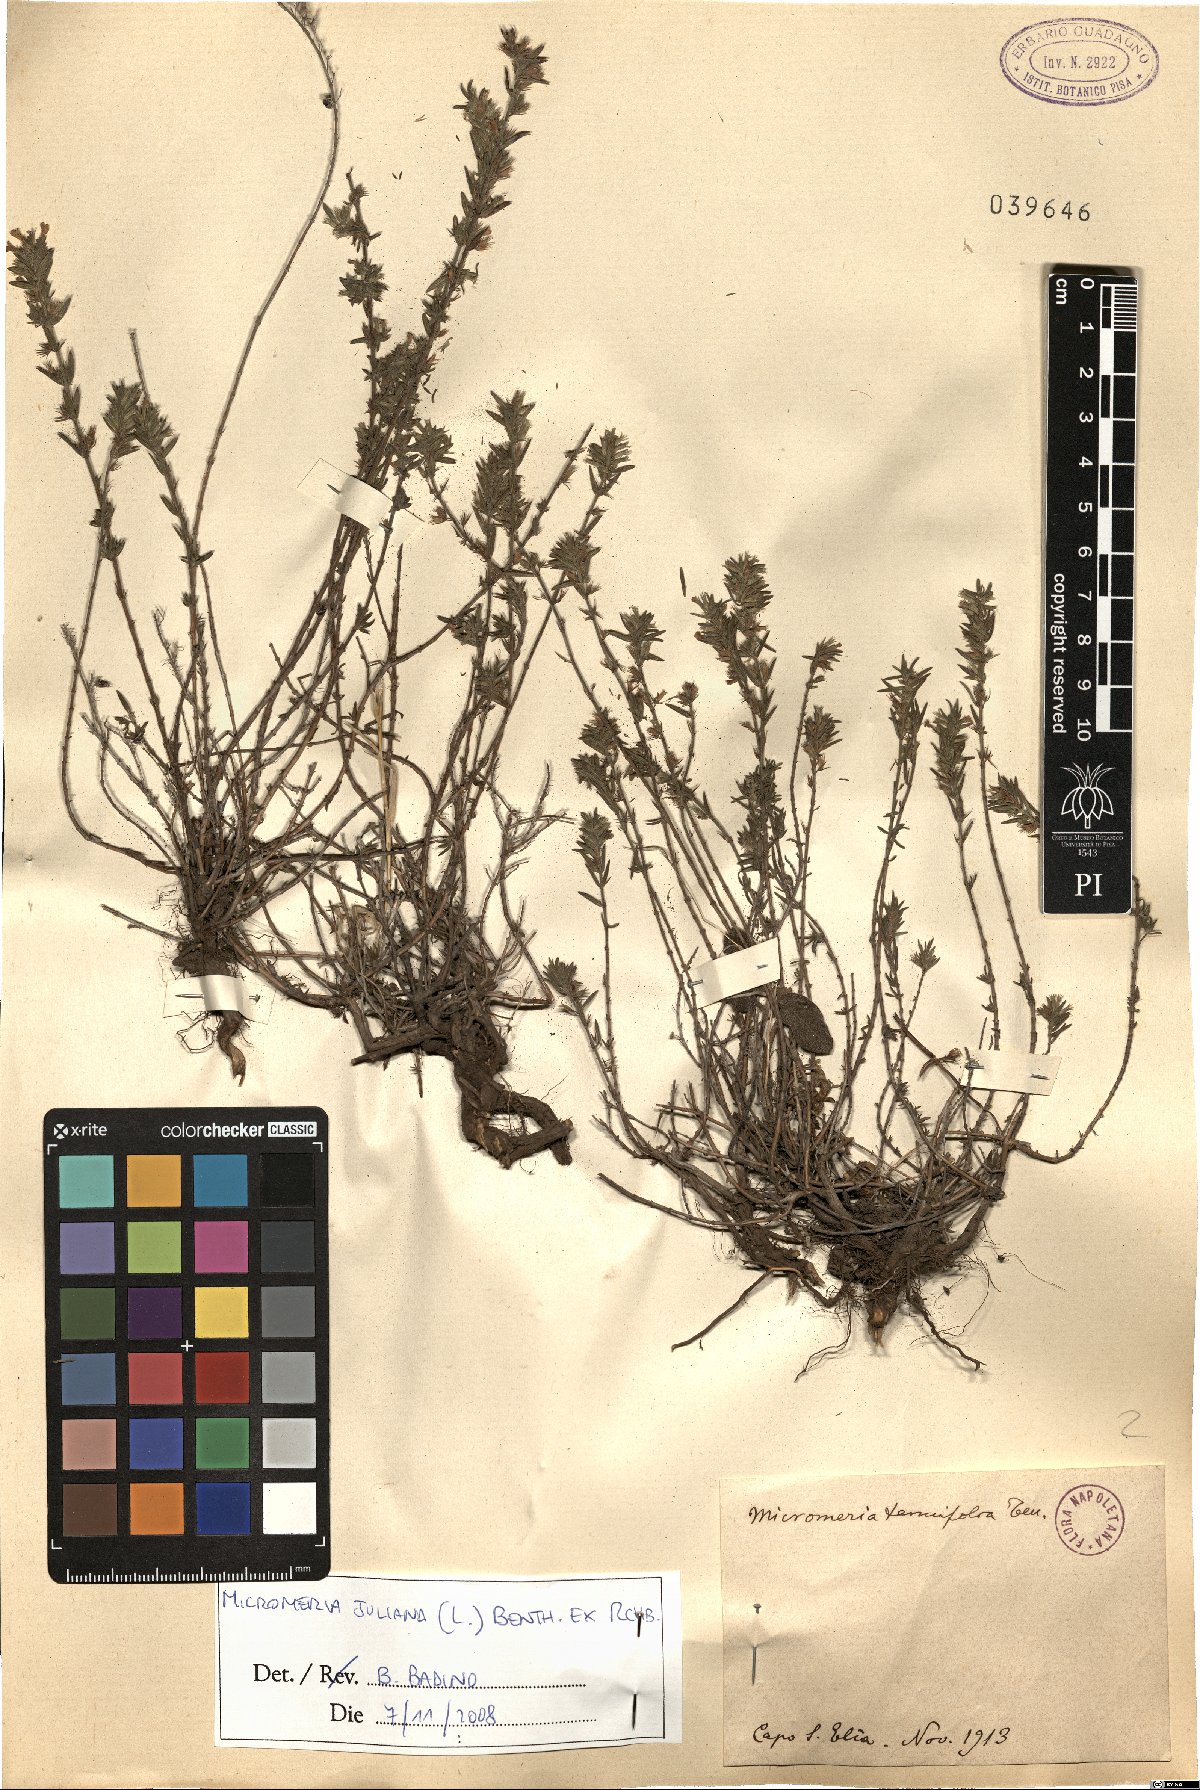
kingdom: Plantae
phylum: Tracheophyta
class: Magnoliopsida
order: Lamiales
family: Lamiaceae
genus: Micromeria
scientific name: Micromeria juliana
